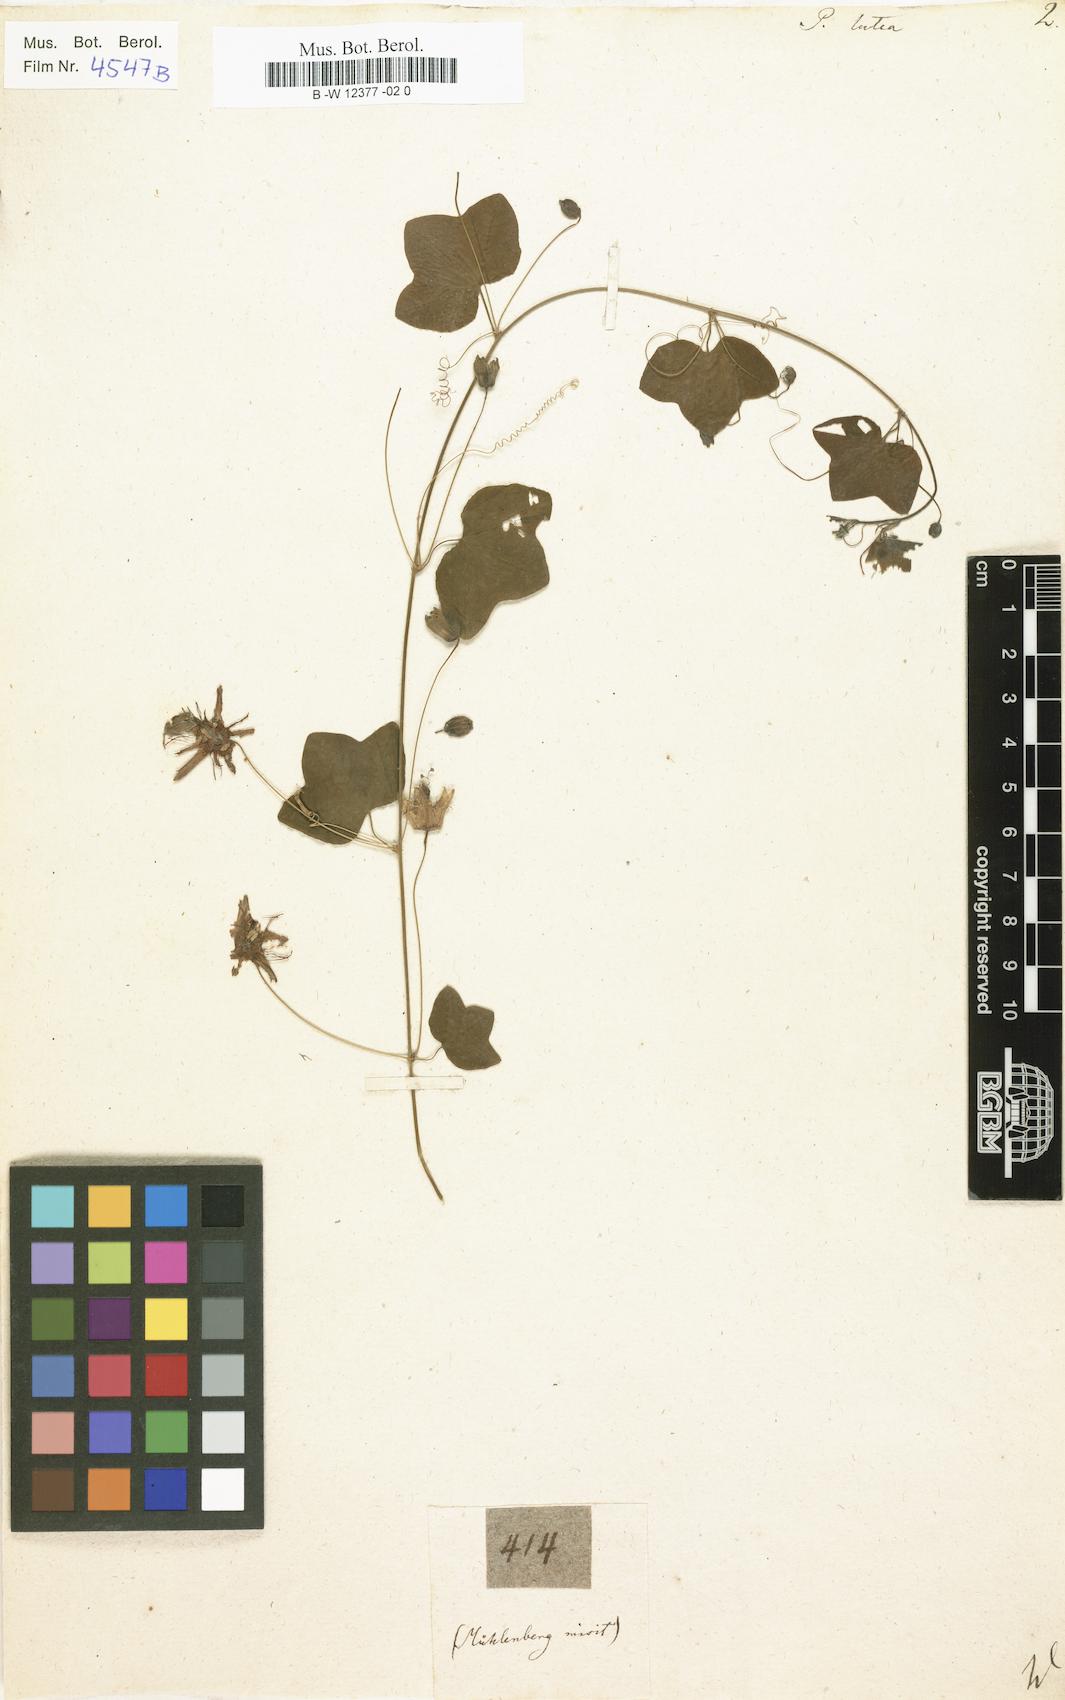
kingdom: Plantae
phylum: Tracheophyta
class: Magnoliopsida
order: Malpighiales
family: Passifloraceae
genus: Passiflora
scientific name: Passiflora lutea
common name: Yellow passionflower
